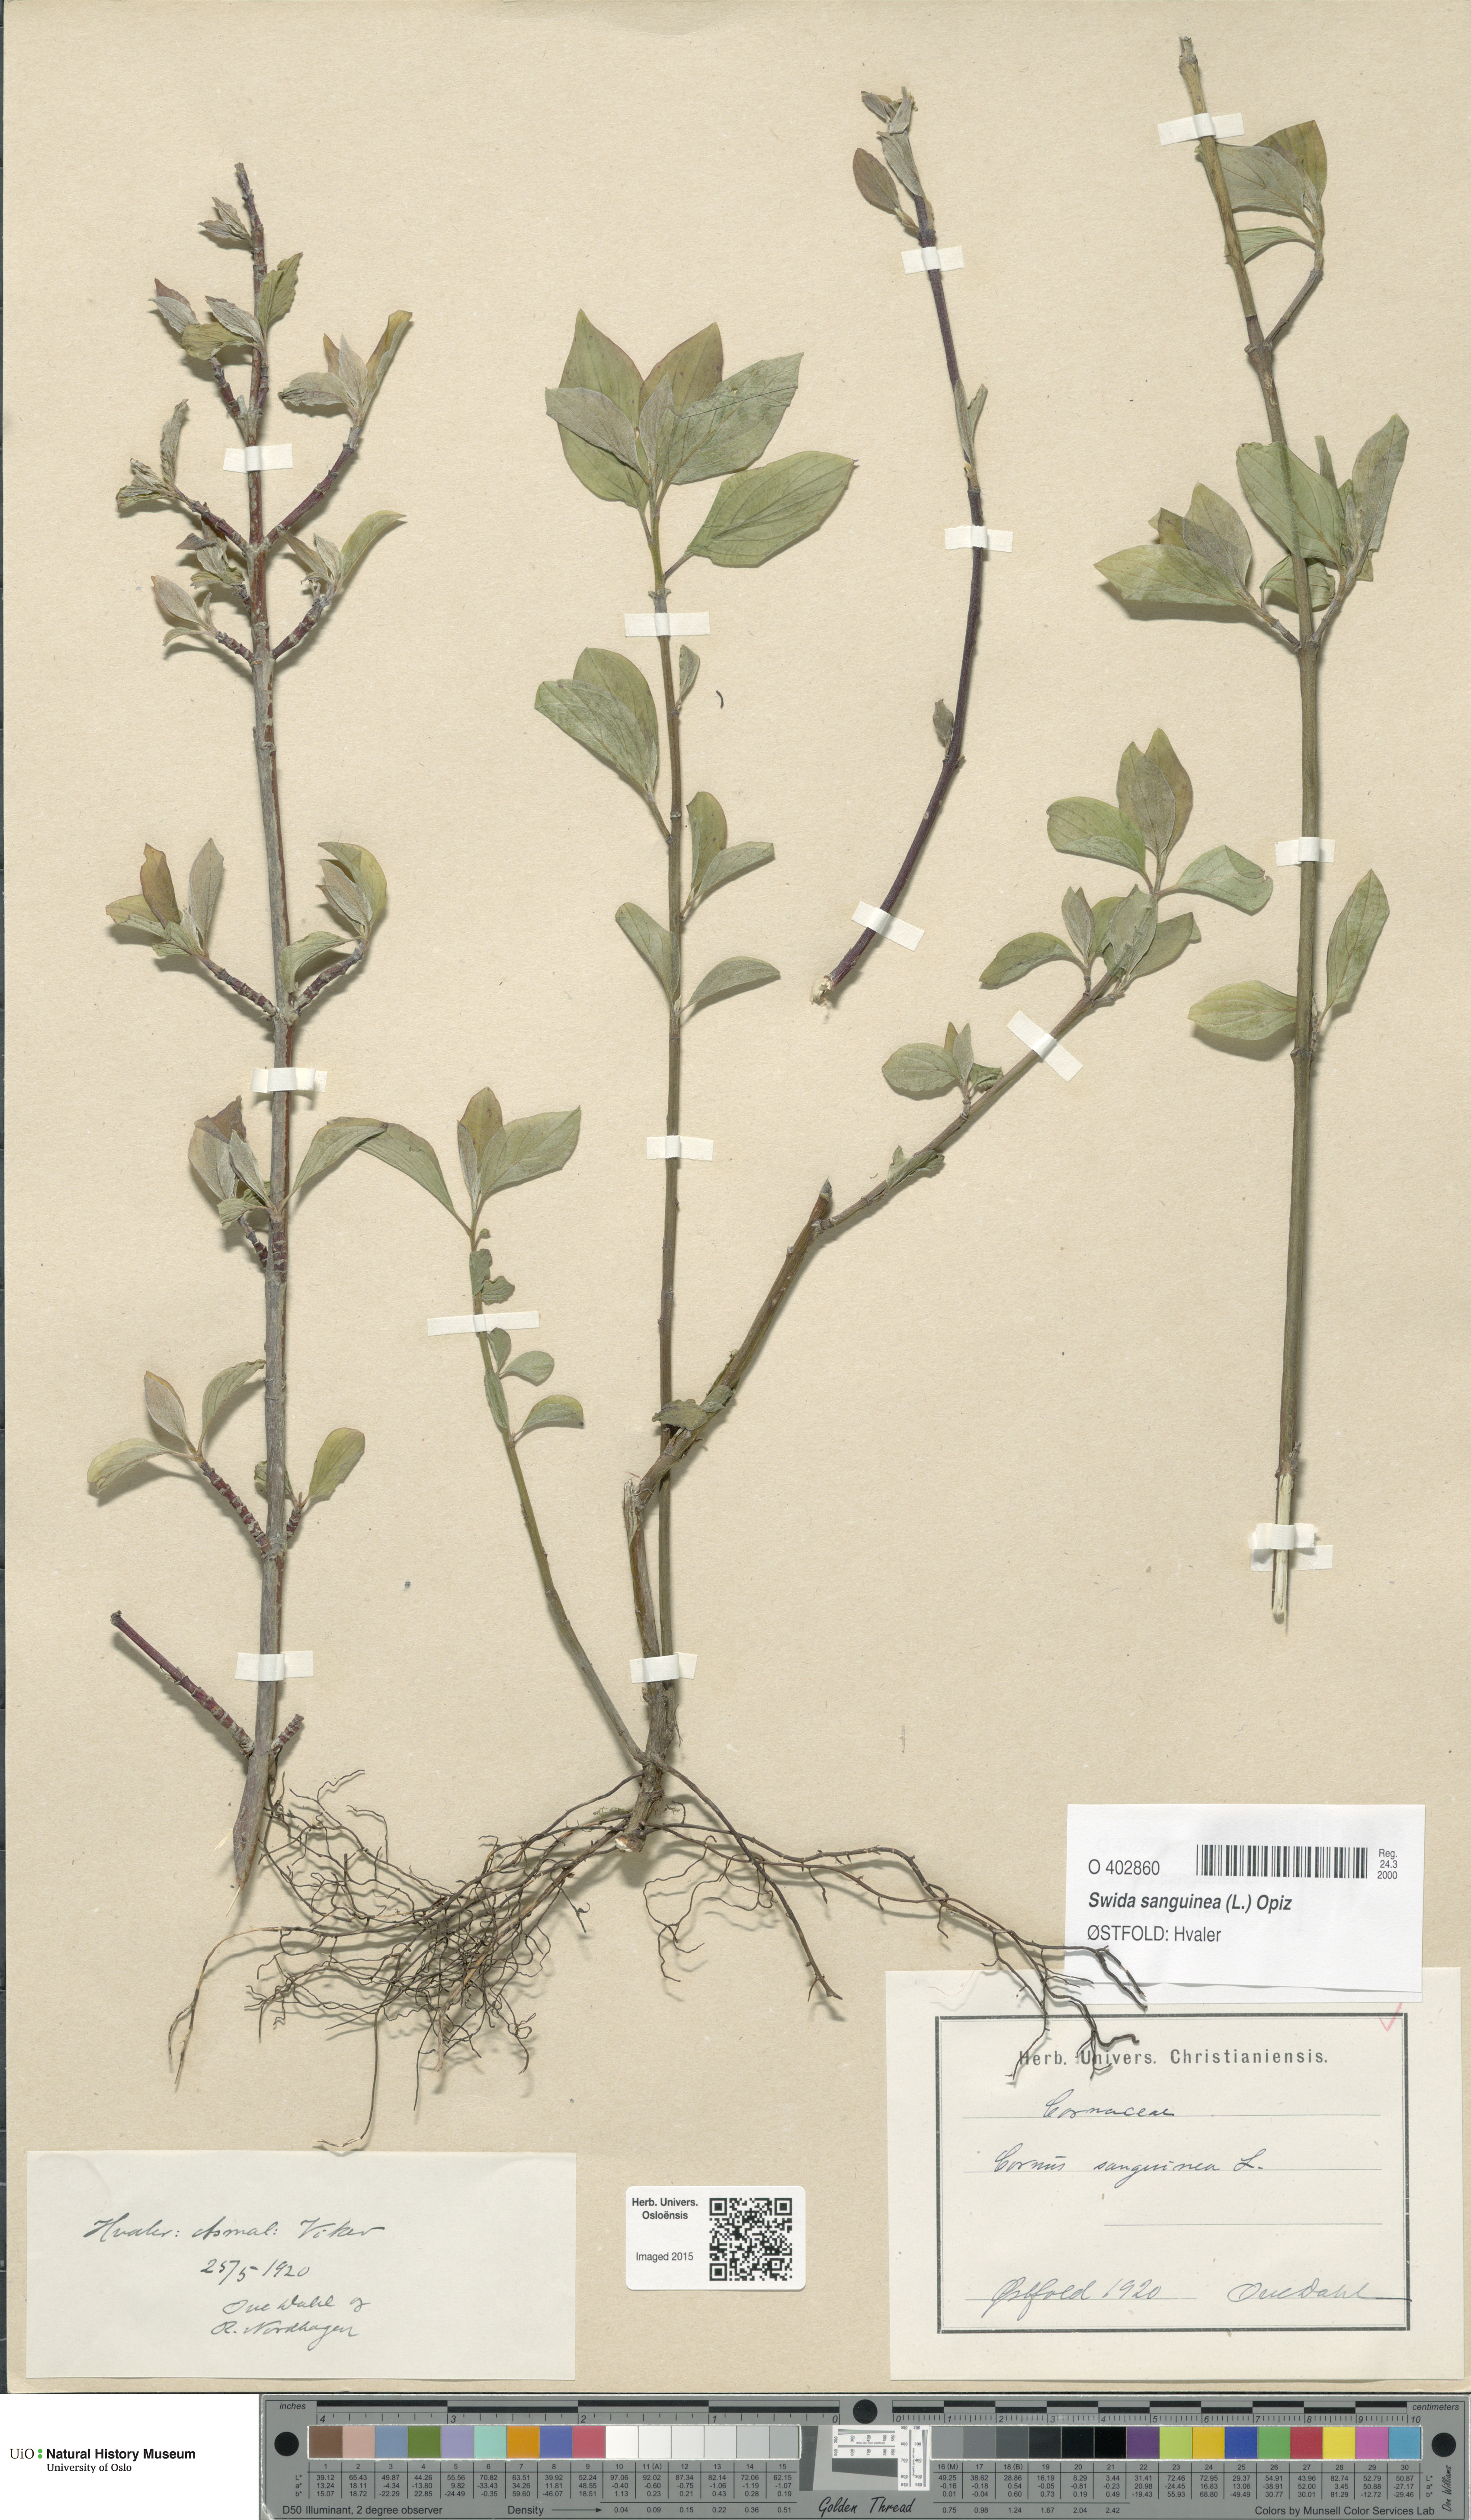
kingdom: Plantae
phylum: Tracheophyta
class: Magnoliopsida
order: Cornales
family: Cornaceae
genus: Cornus
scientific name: Cornus sanguinea
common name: Dogwood
